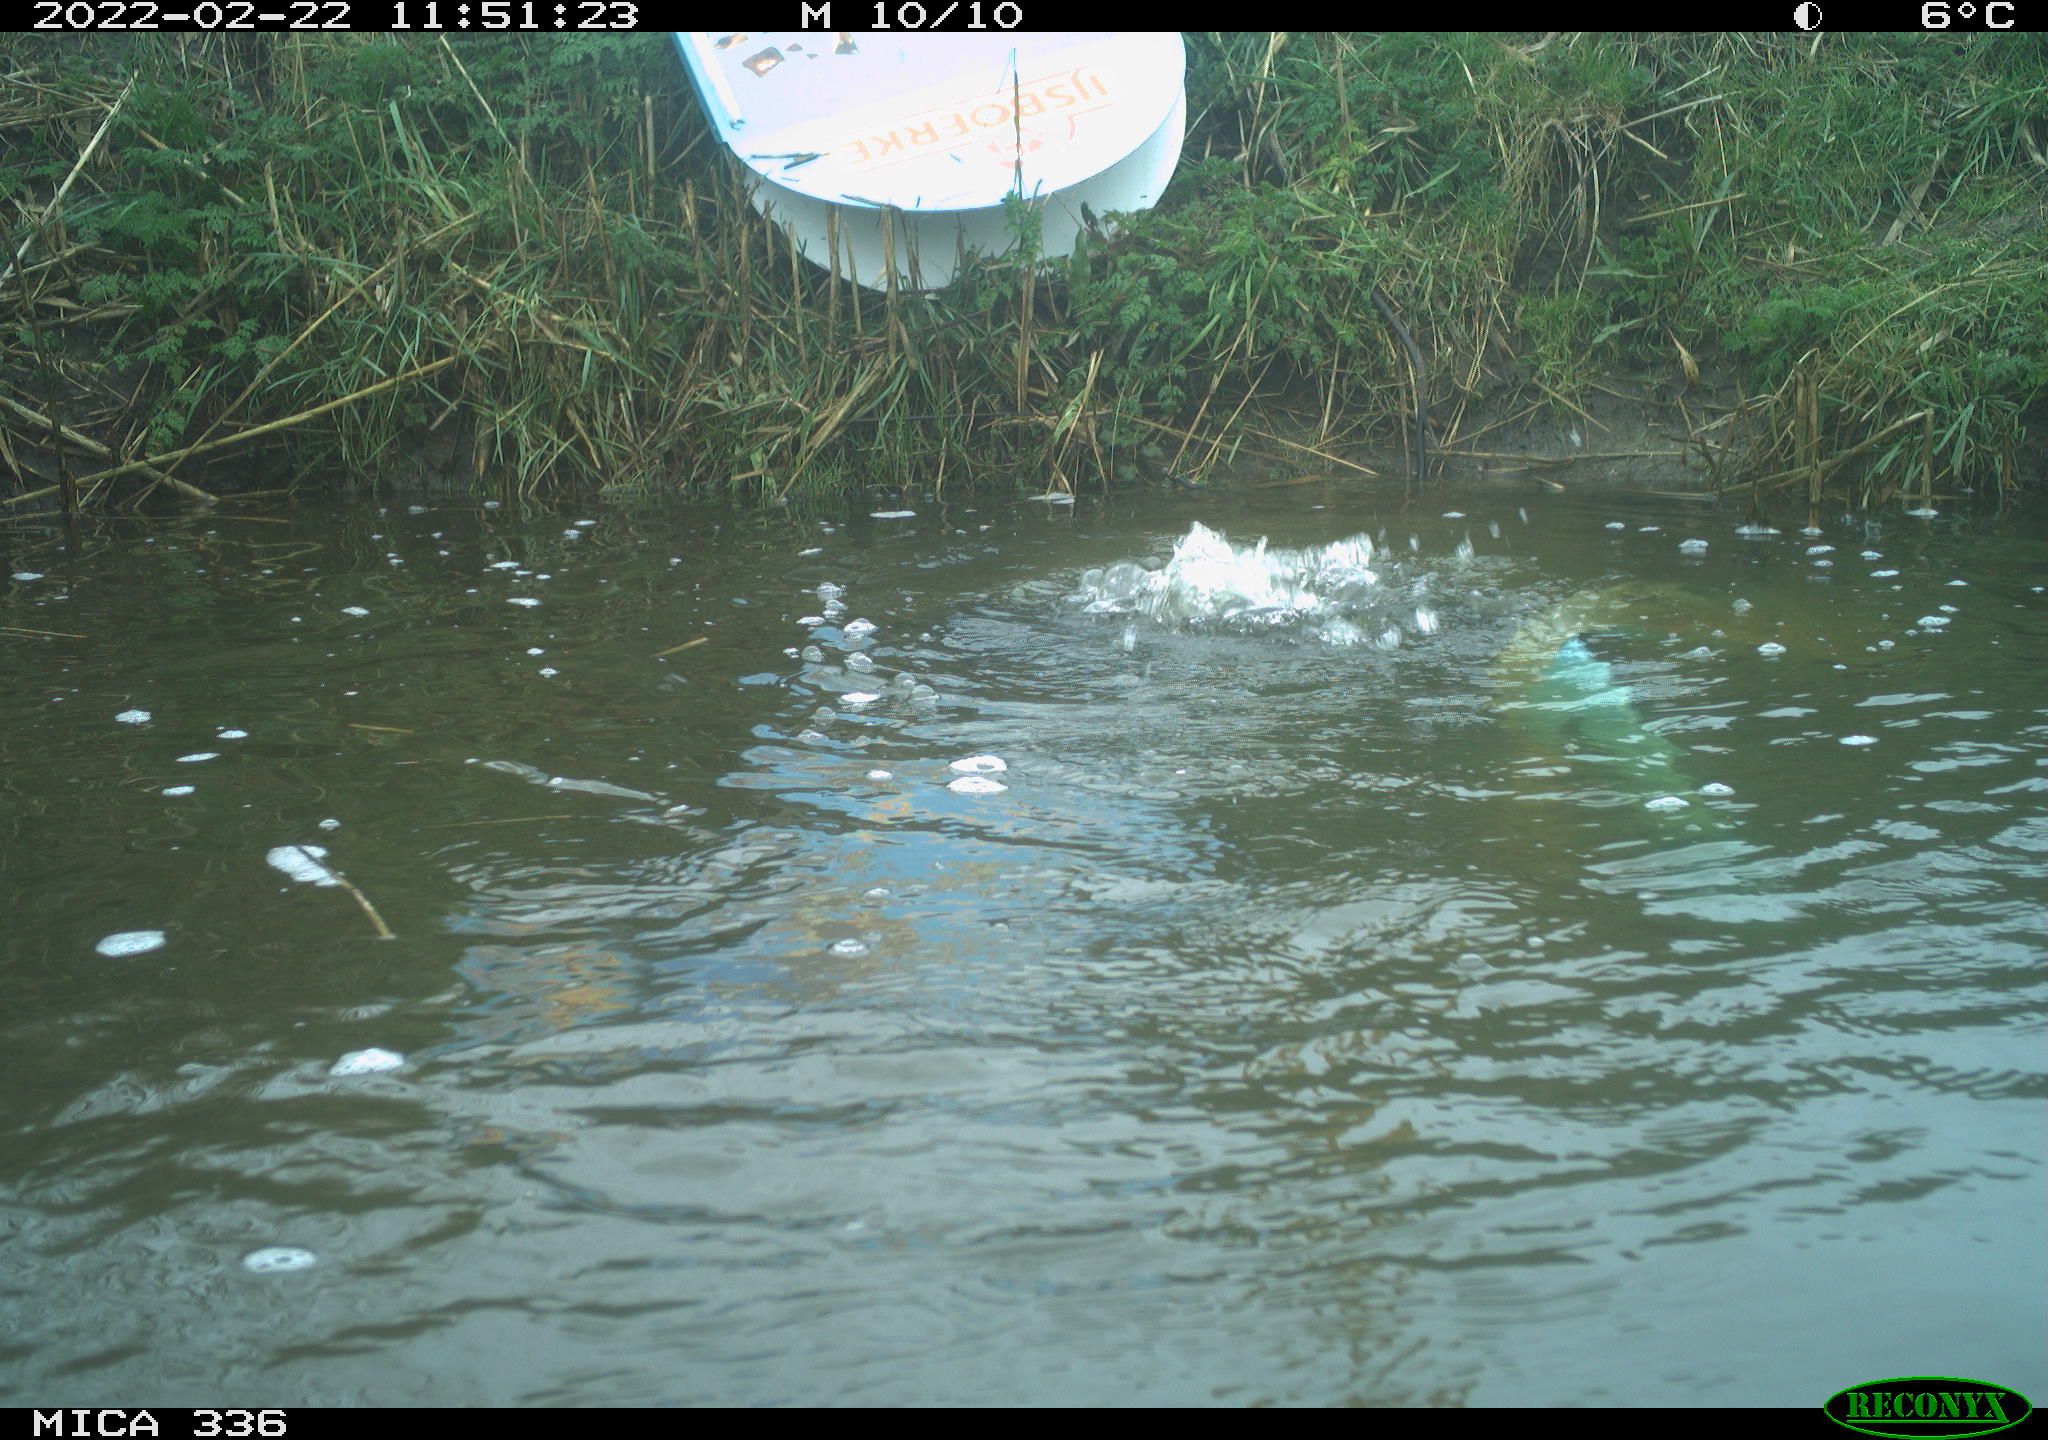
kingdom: Animalia
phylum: Chordata
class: Aves
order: Suliformes
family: Phalacrocoracidae
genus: Phalacrocorax
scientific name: Phalacrocorax carbo
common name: Great cormorant
